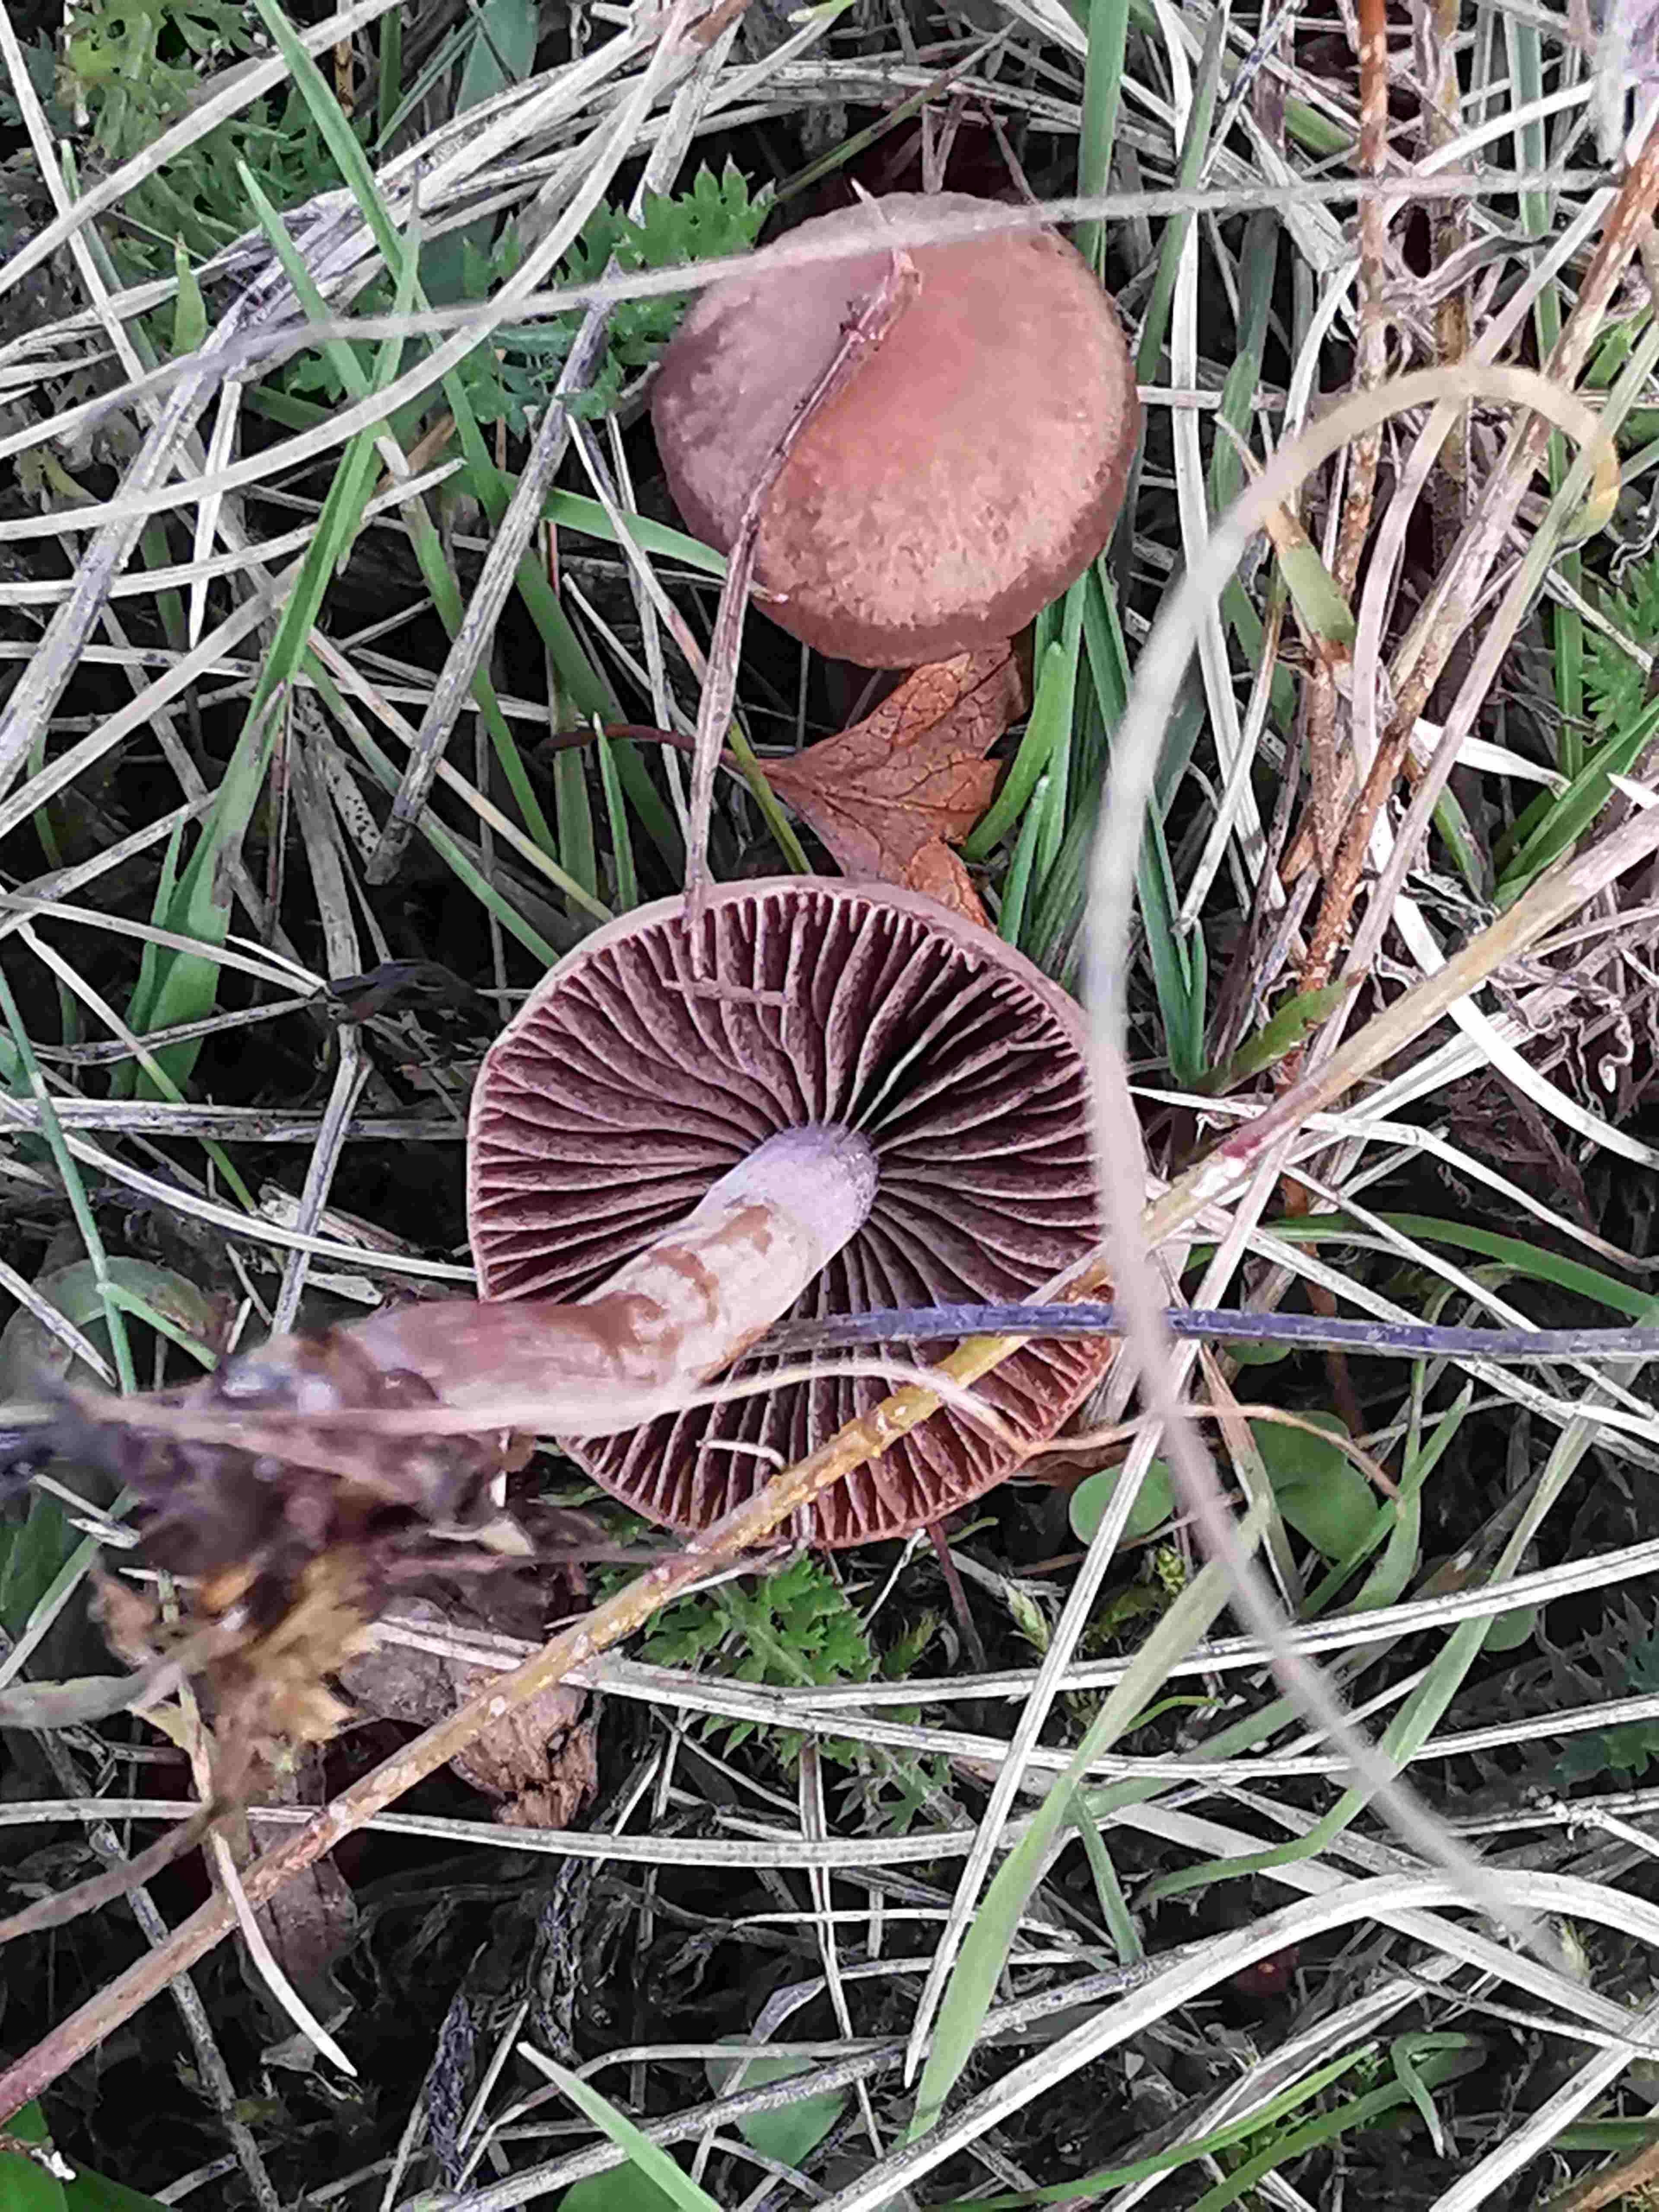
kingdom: Fungi
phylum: Basidiomycota
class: Agaricomycetes
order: Agaricales
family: Bolbitiaceae
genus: Panaeolina
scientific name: Panaeolina foenisecii
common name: høslætsvamp
